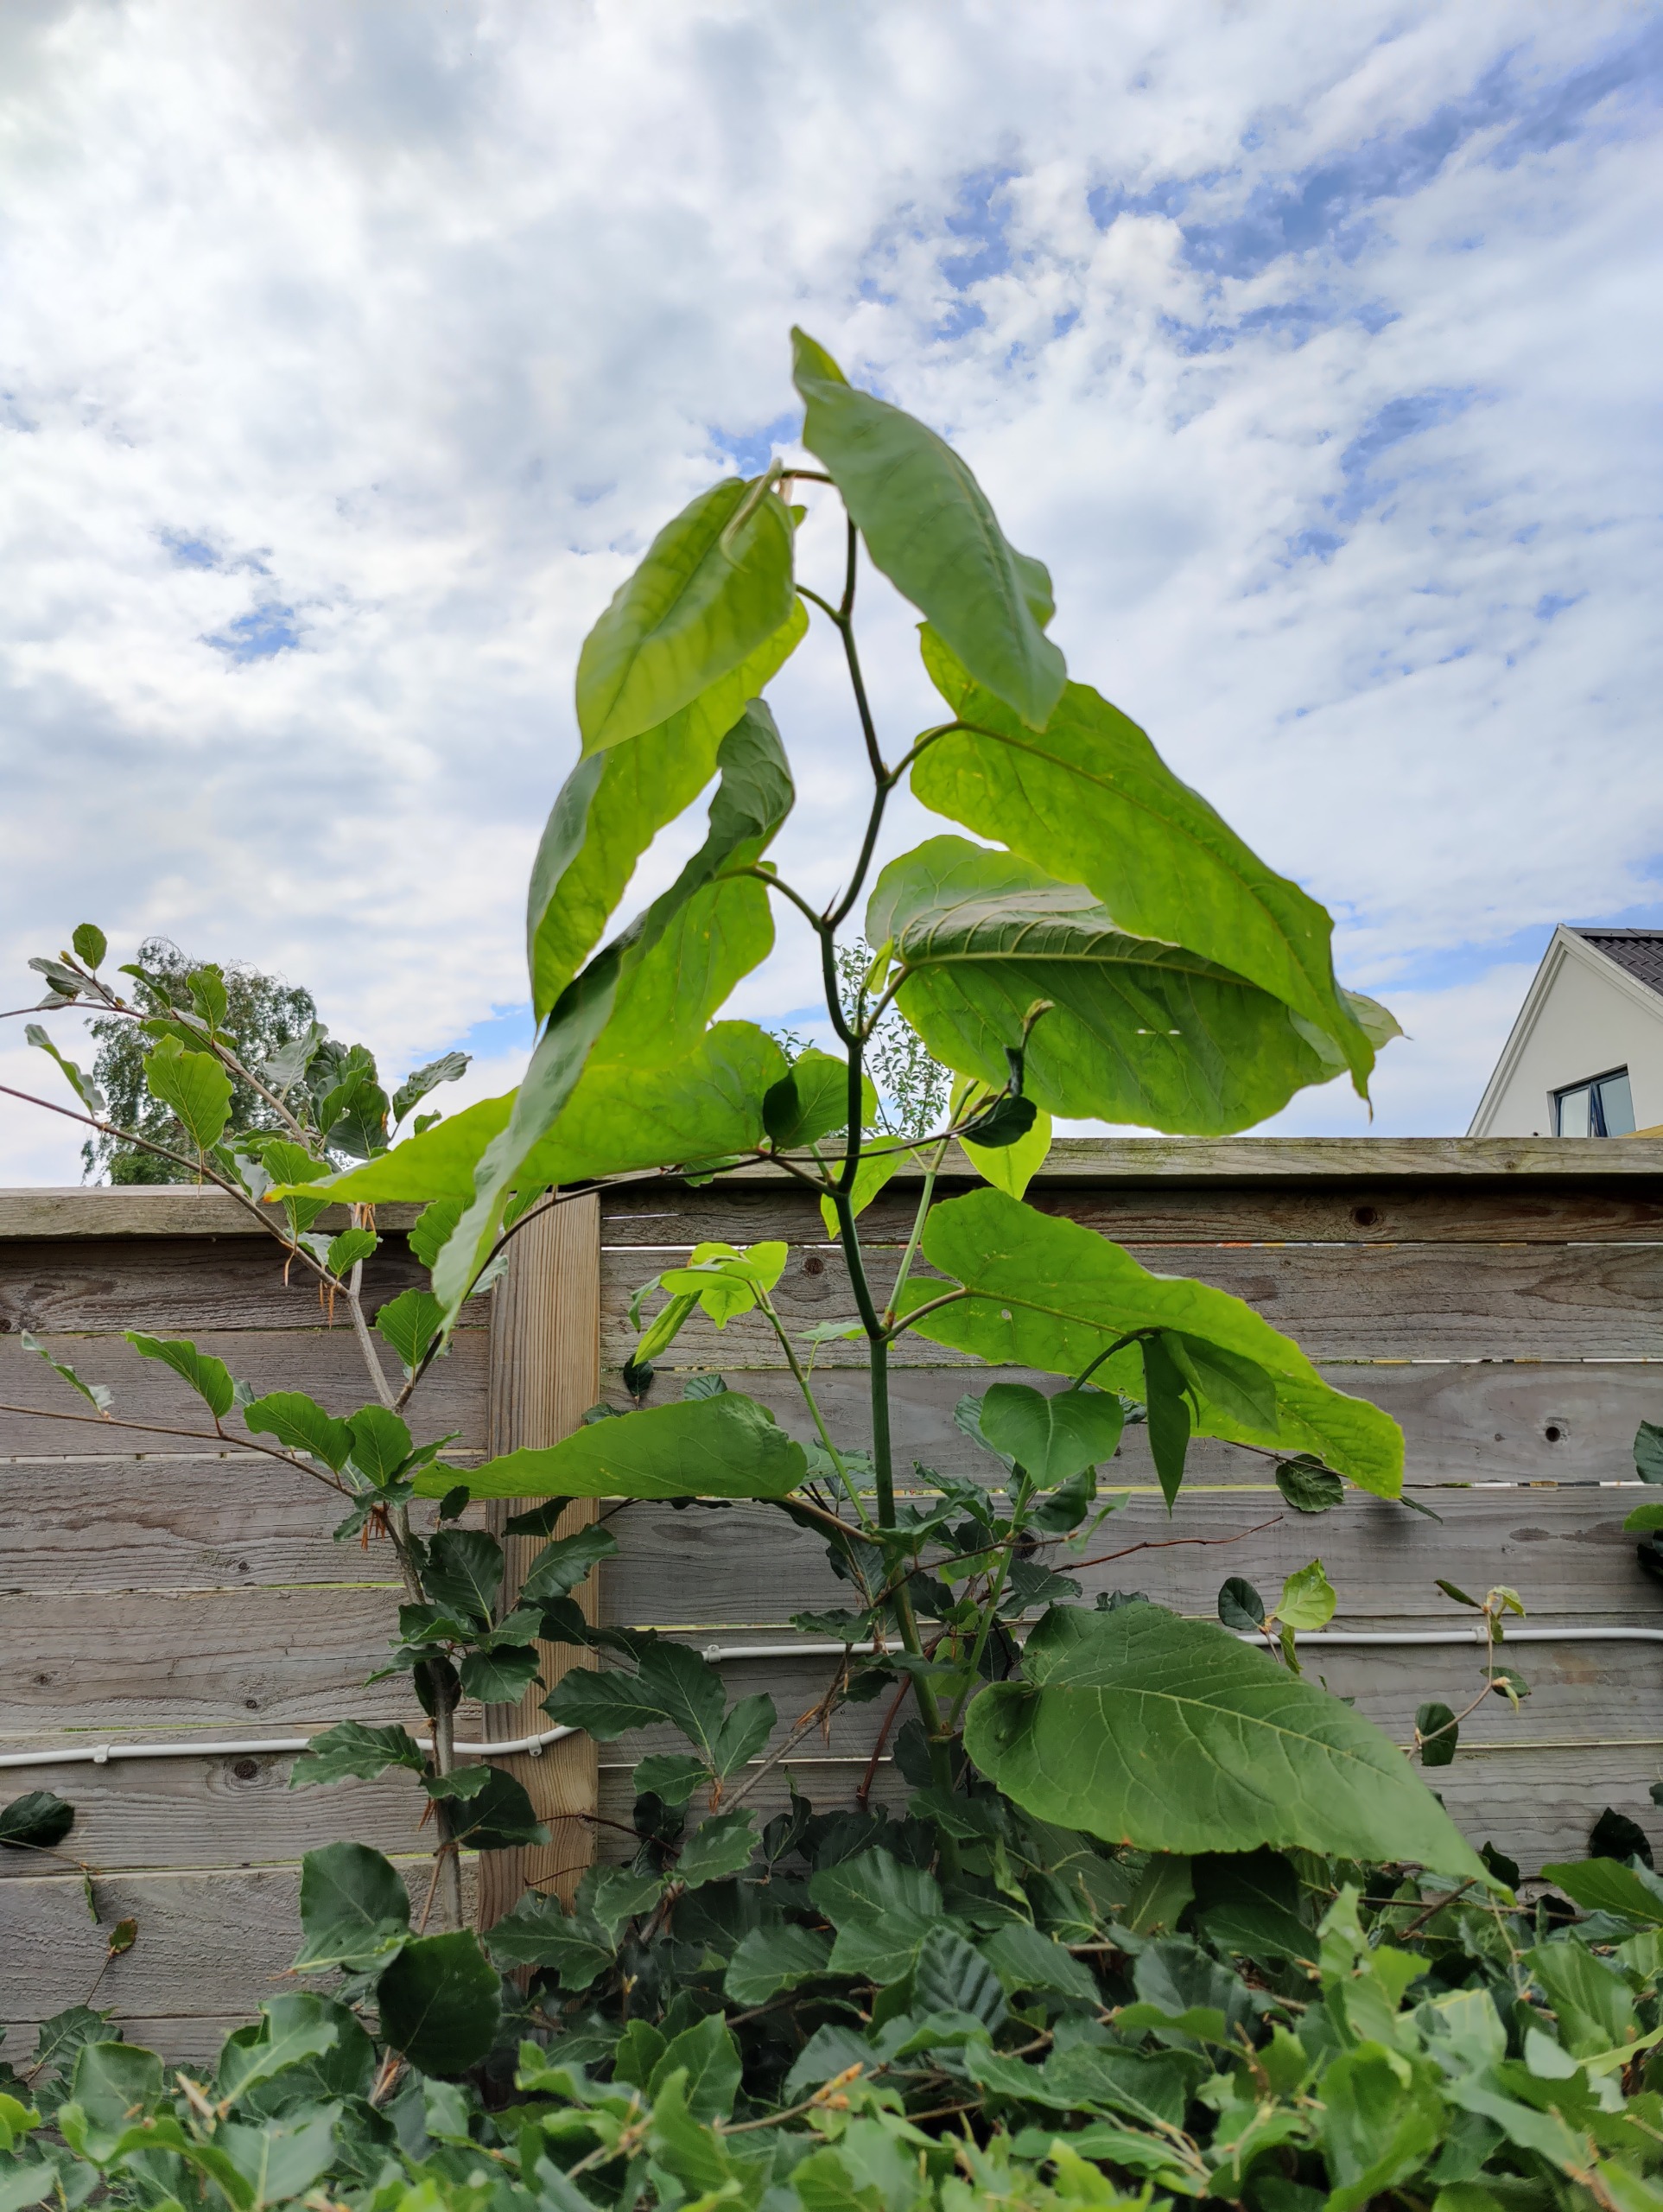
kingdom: Plantae
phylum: Tracheophyta
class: Magnoliopsida
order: Caryophyllales
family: Polygonaceae
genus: Reynoutria
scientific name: Reynoutria sachalinensis
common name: Kæmpe-pileurt
